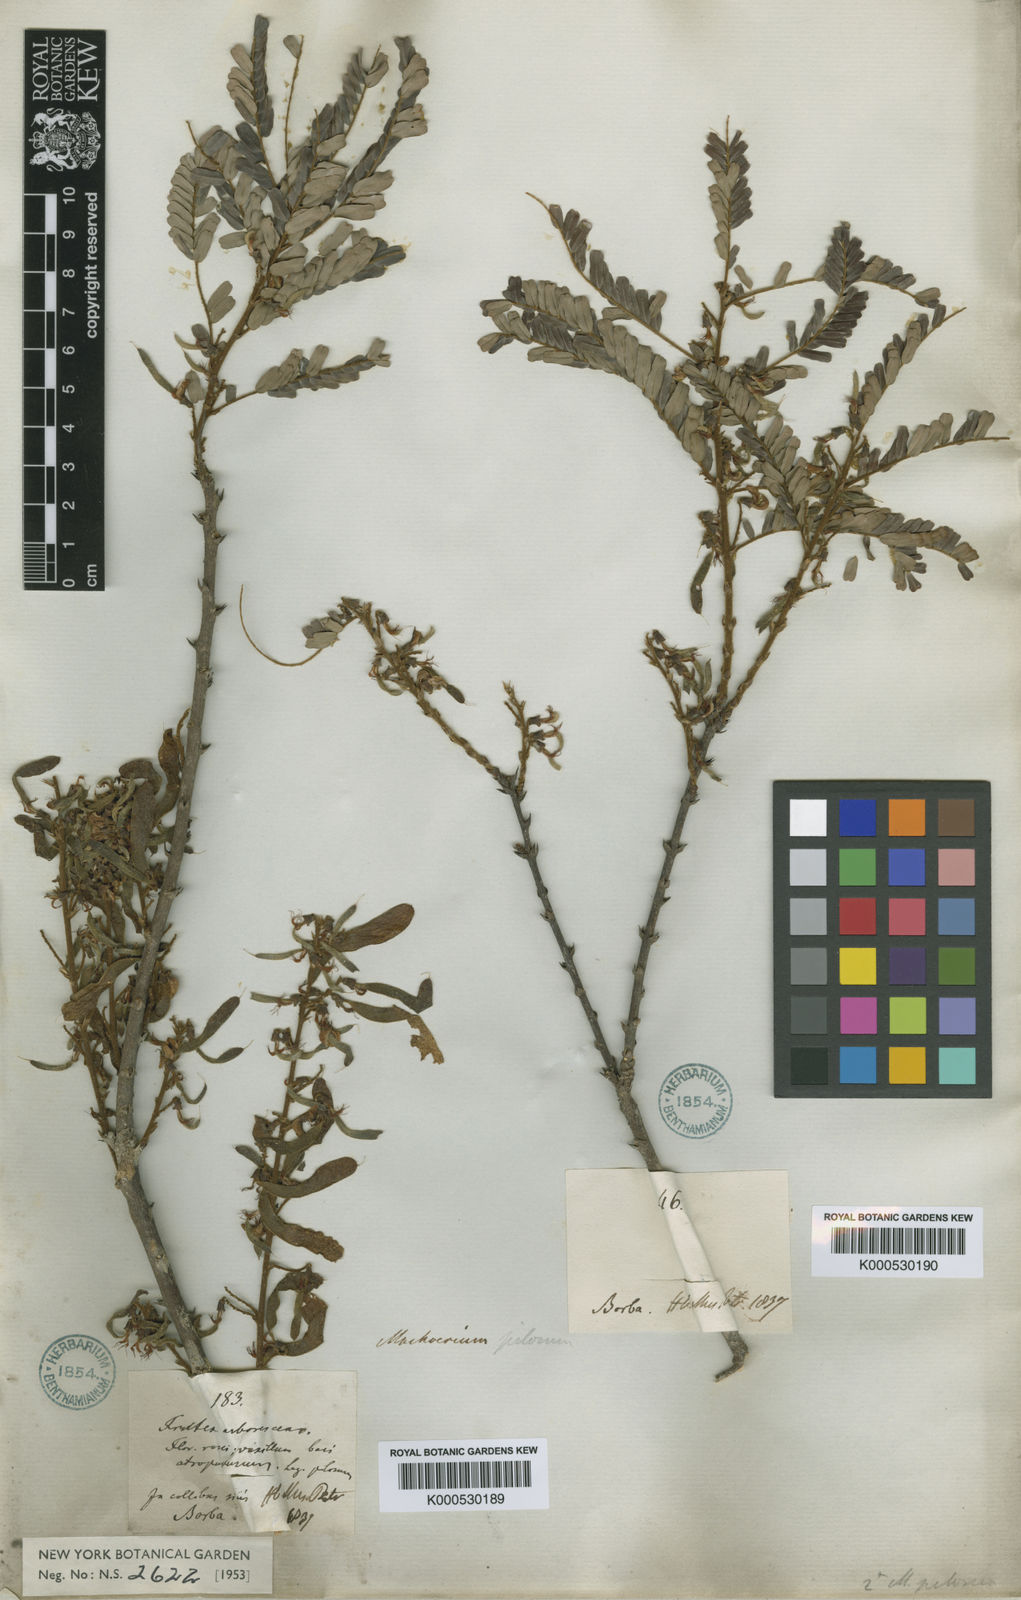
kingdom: Plantae
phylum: Tracheophyta
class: Magnoliopsida
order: Fabales
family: Fabaceae
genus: Machaerium
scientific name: Machaerium hirtum
